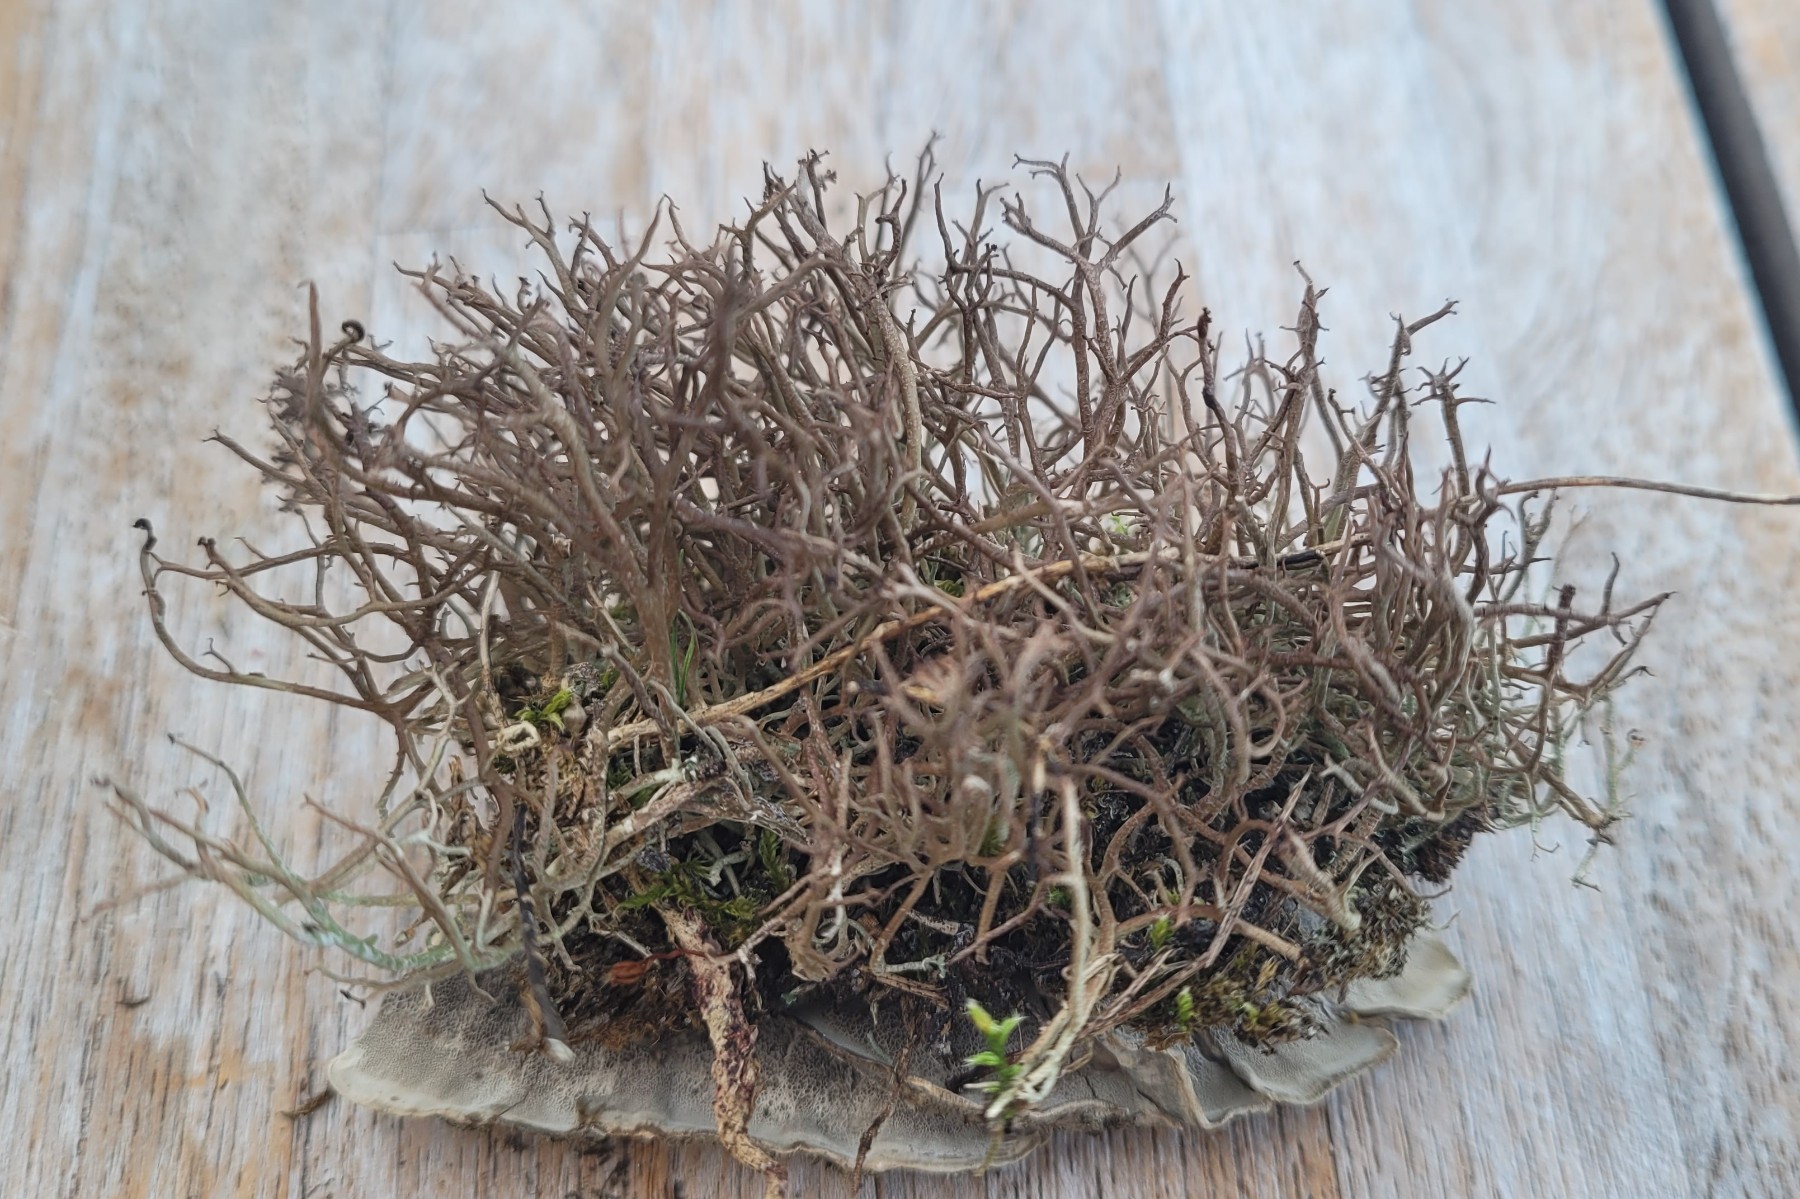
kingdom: Fungi
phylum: Ascomycota
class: Lecanoromycetes
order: Lecanorales
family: Cladoniaceae
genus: Cladonia
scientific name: Cladonia furcata
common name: kløftet bægerlav
